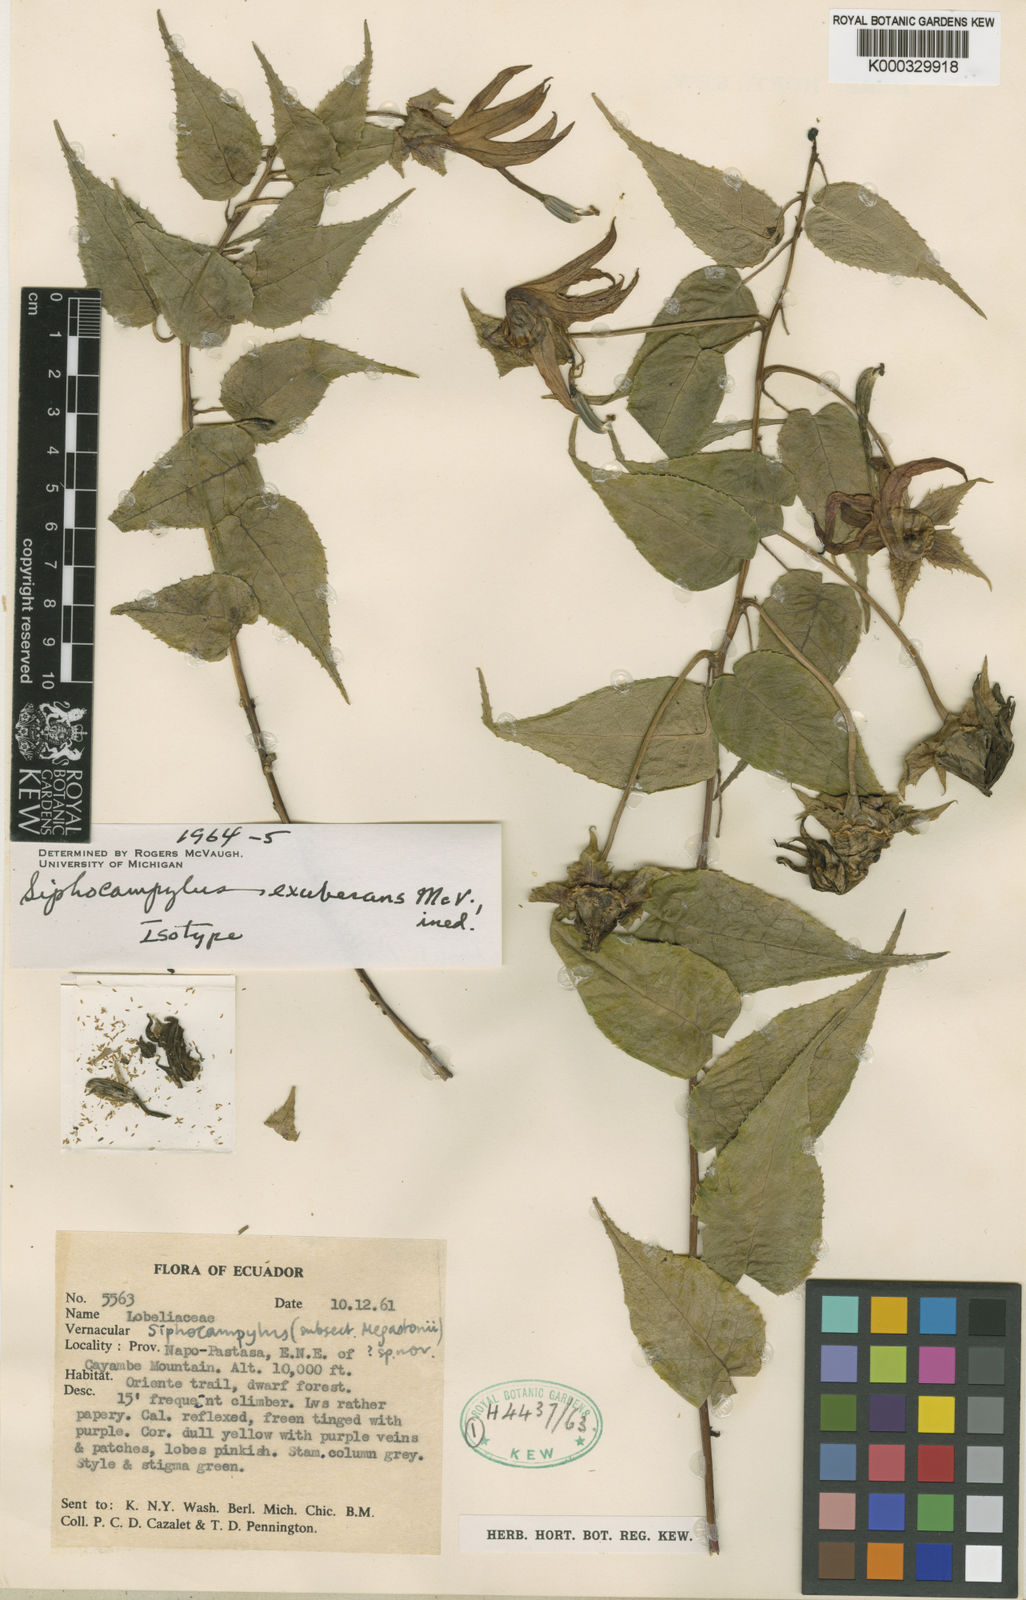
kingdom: Plantae
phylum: Tracheophyta
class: Magnoliopsida
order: Asterales
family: Campanulaceae
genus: Siphocampylus
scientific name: Siphocampylus ecuadorensis
